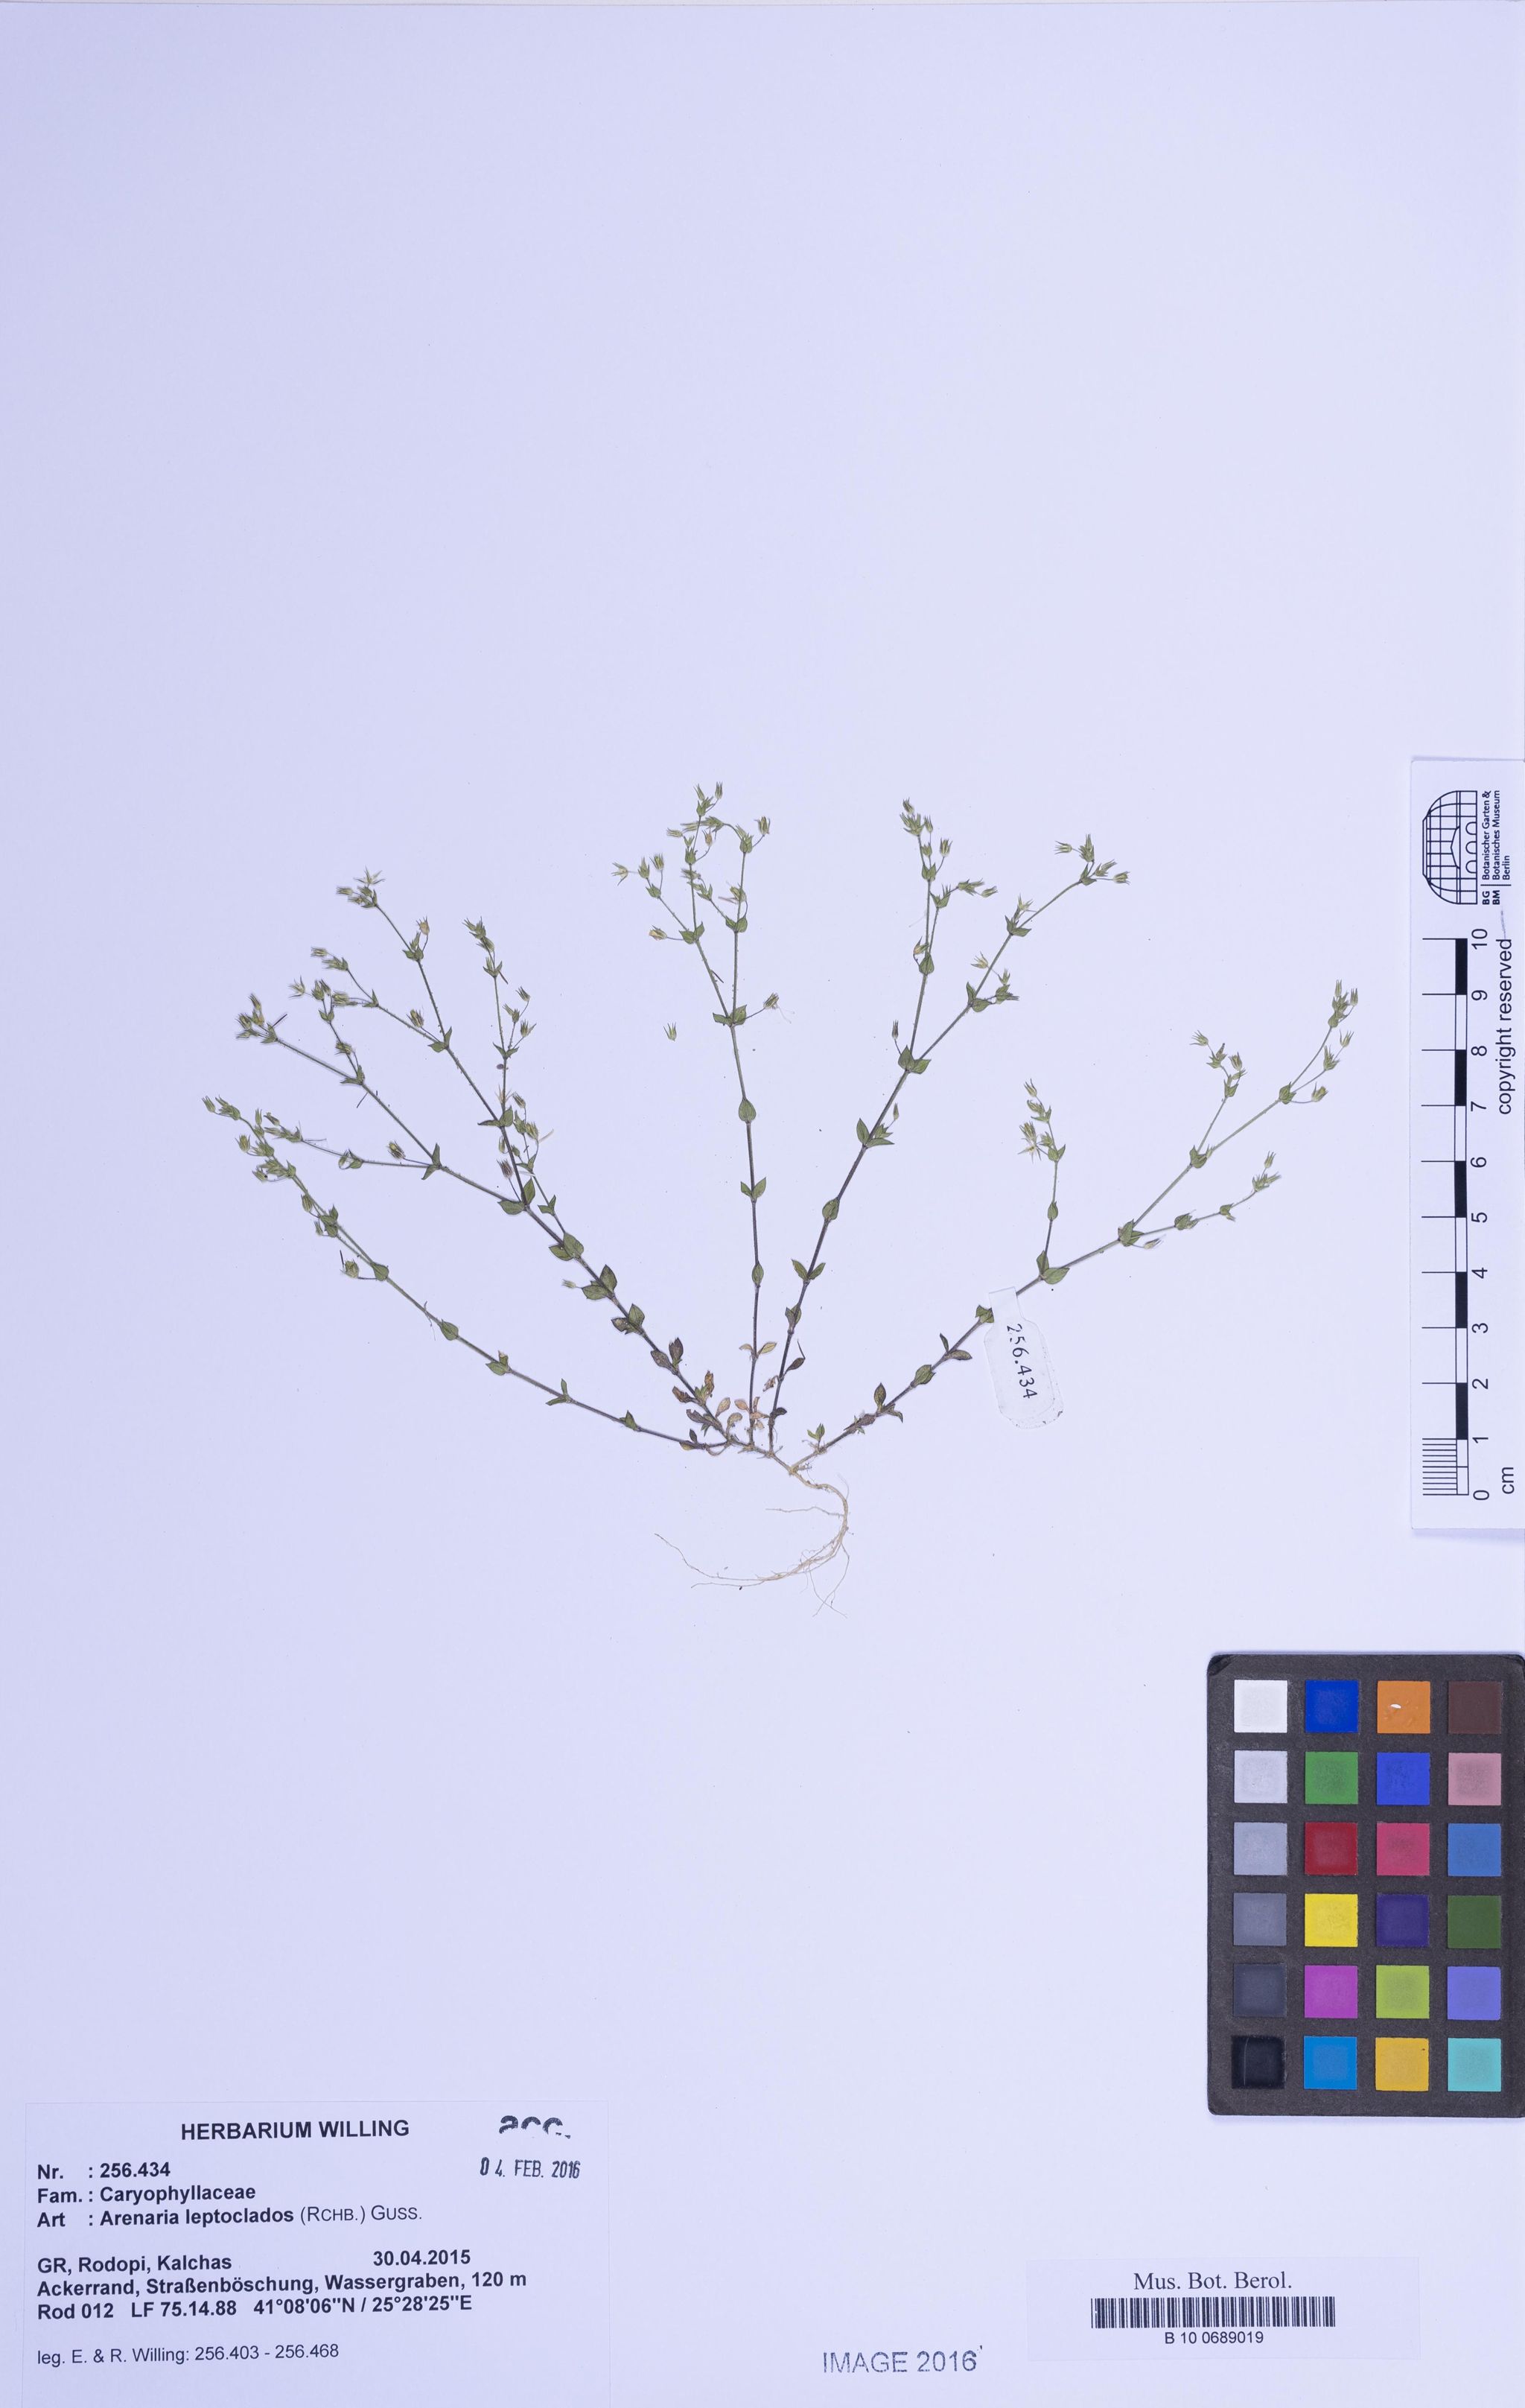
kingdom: Plantae
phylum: Tracheophyta
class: Magnoliopsida
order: Caryophyllales
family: Caryophyllaceae
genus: Arenaria
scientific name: Arenaria leptoclados
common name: Thyme-leaved sandwort
